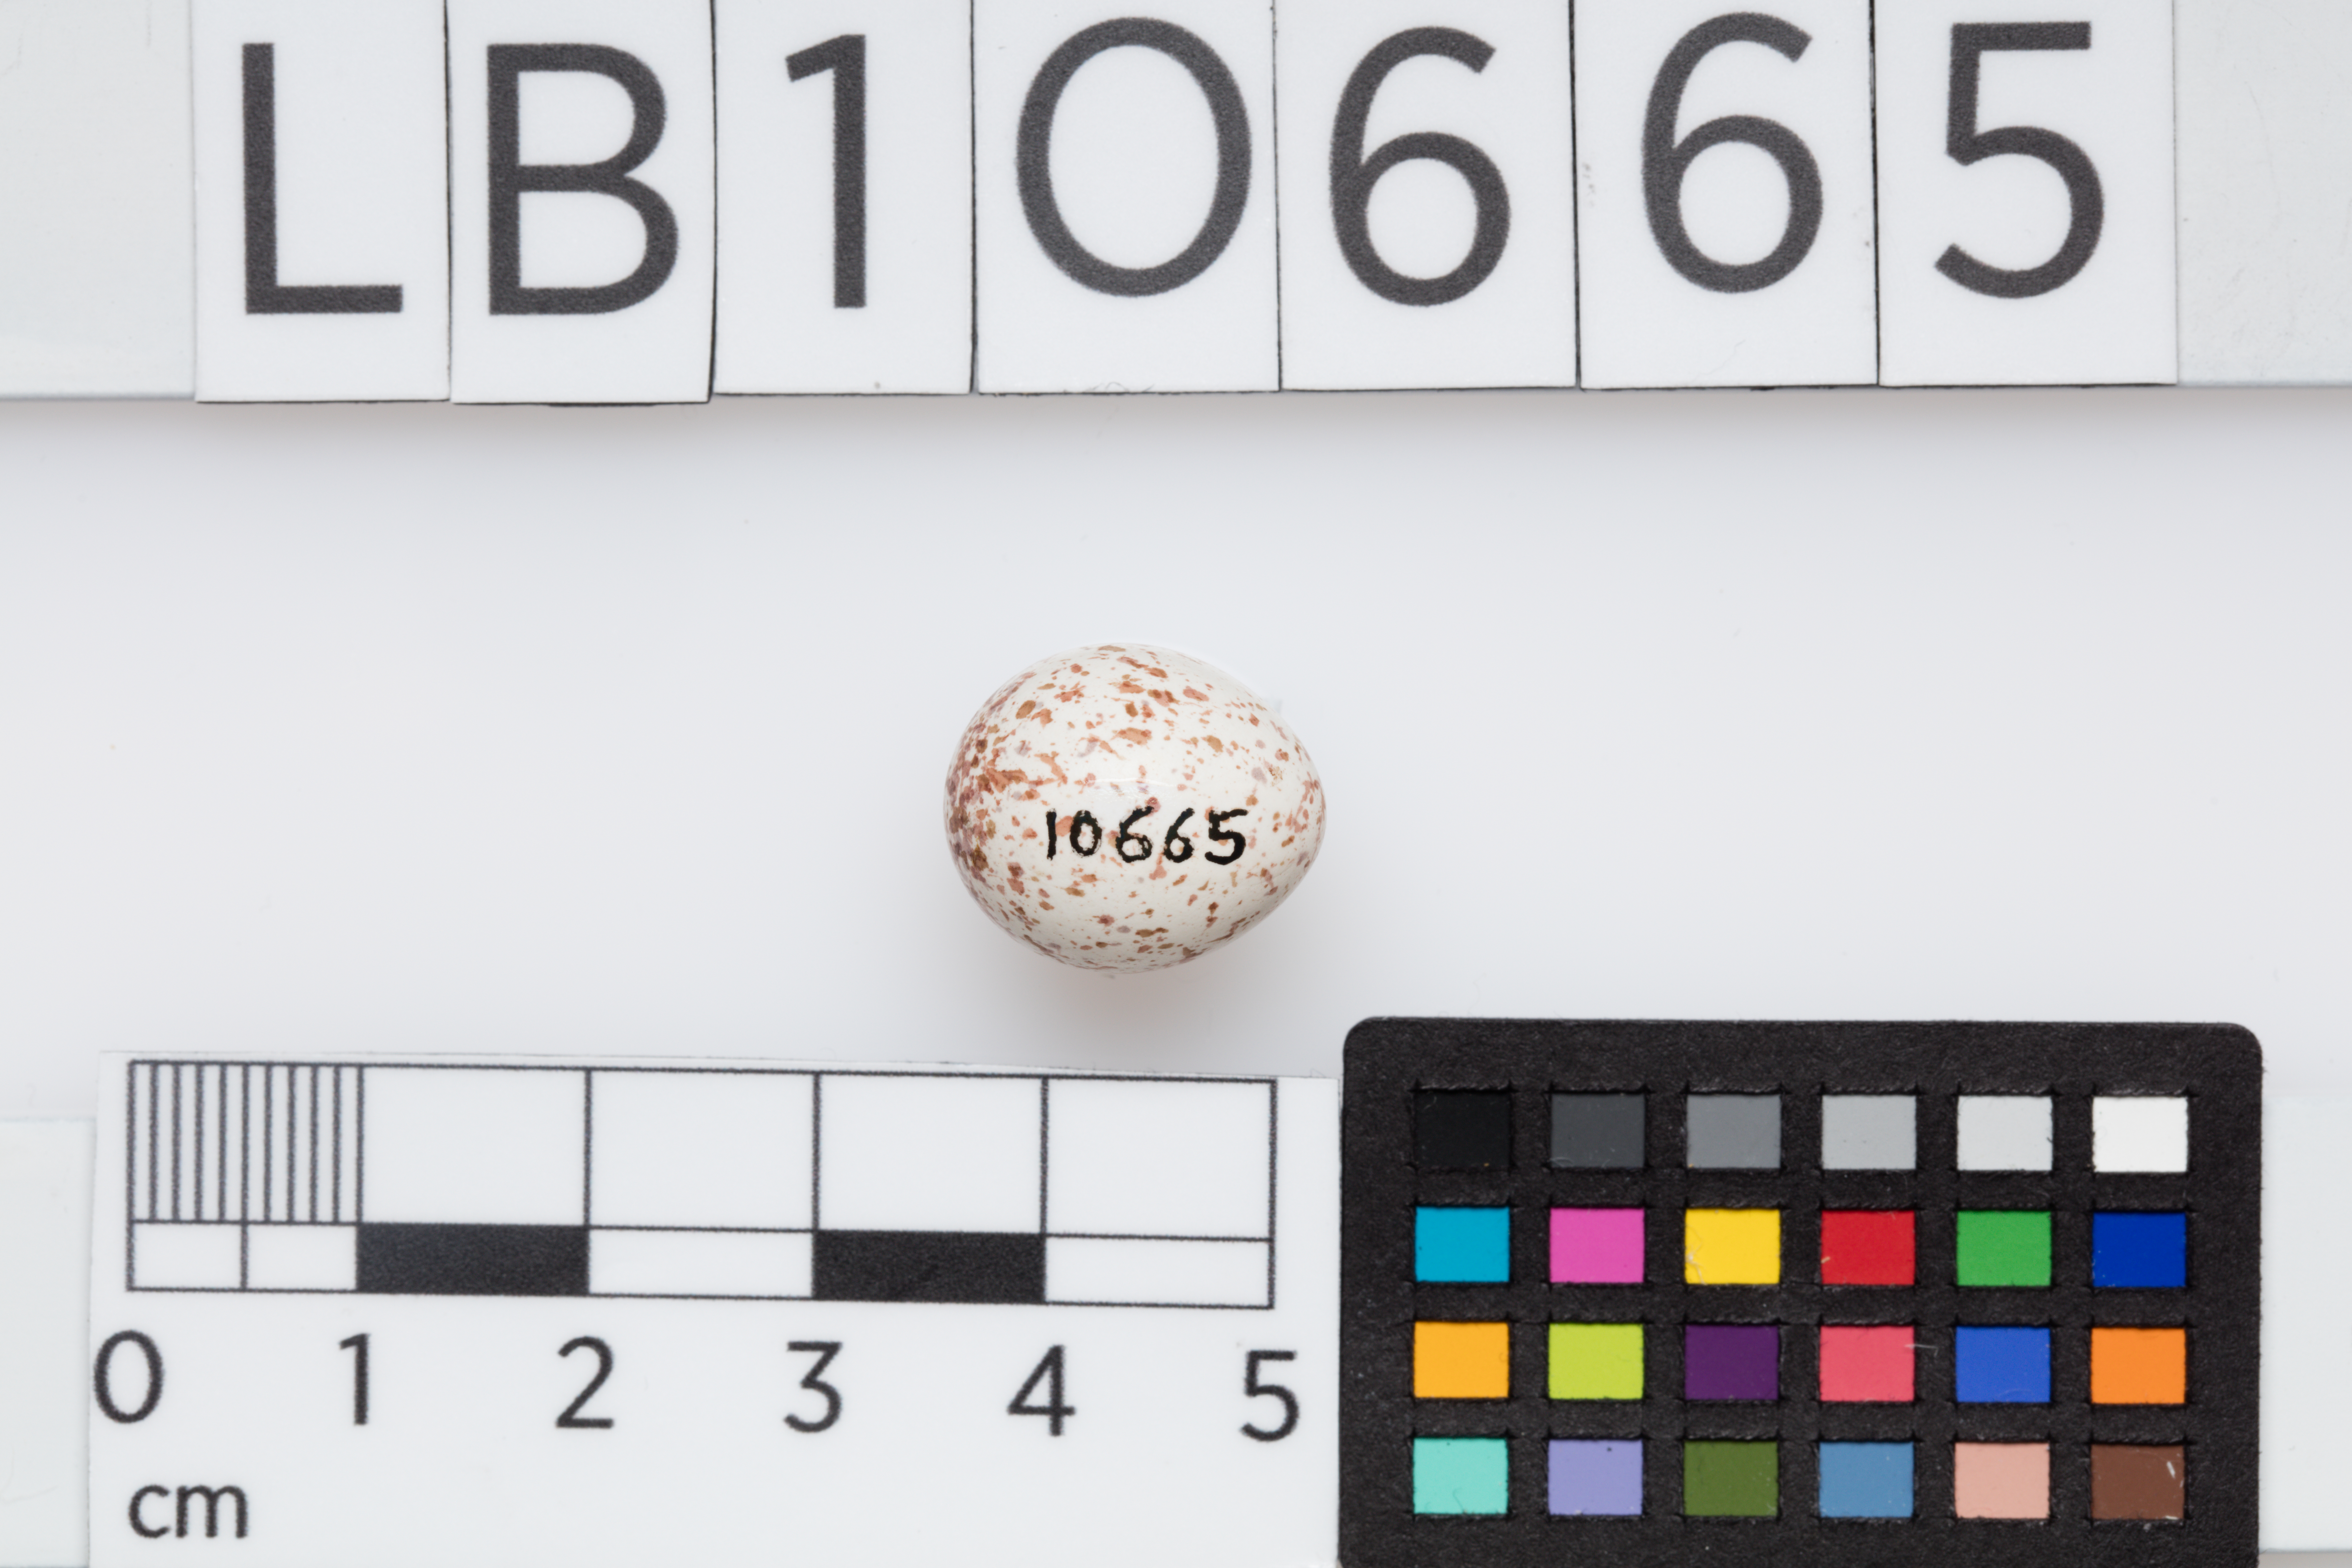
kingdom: Animalia
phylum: Chordata
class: Aves
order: Passeriformes
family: Paridae
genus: Parus
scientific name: Parus major
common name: Great tit
